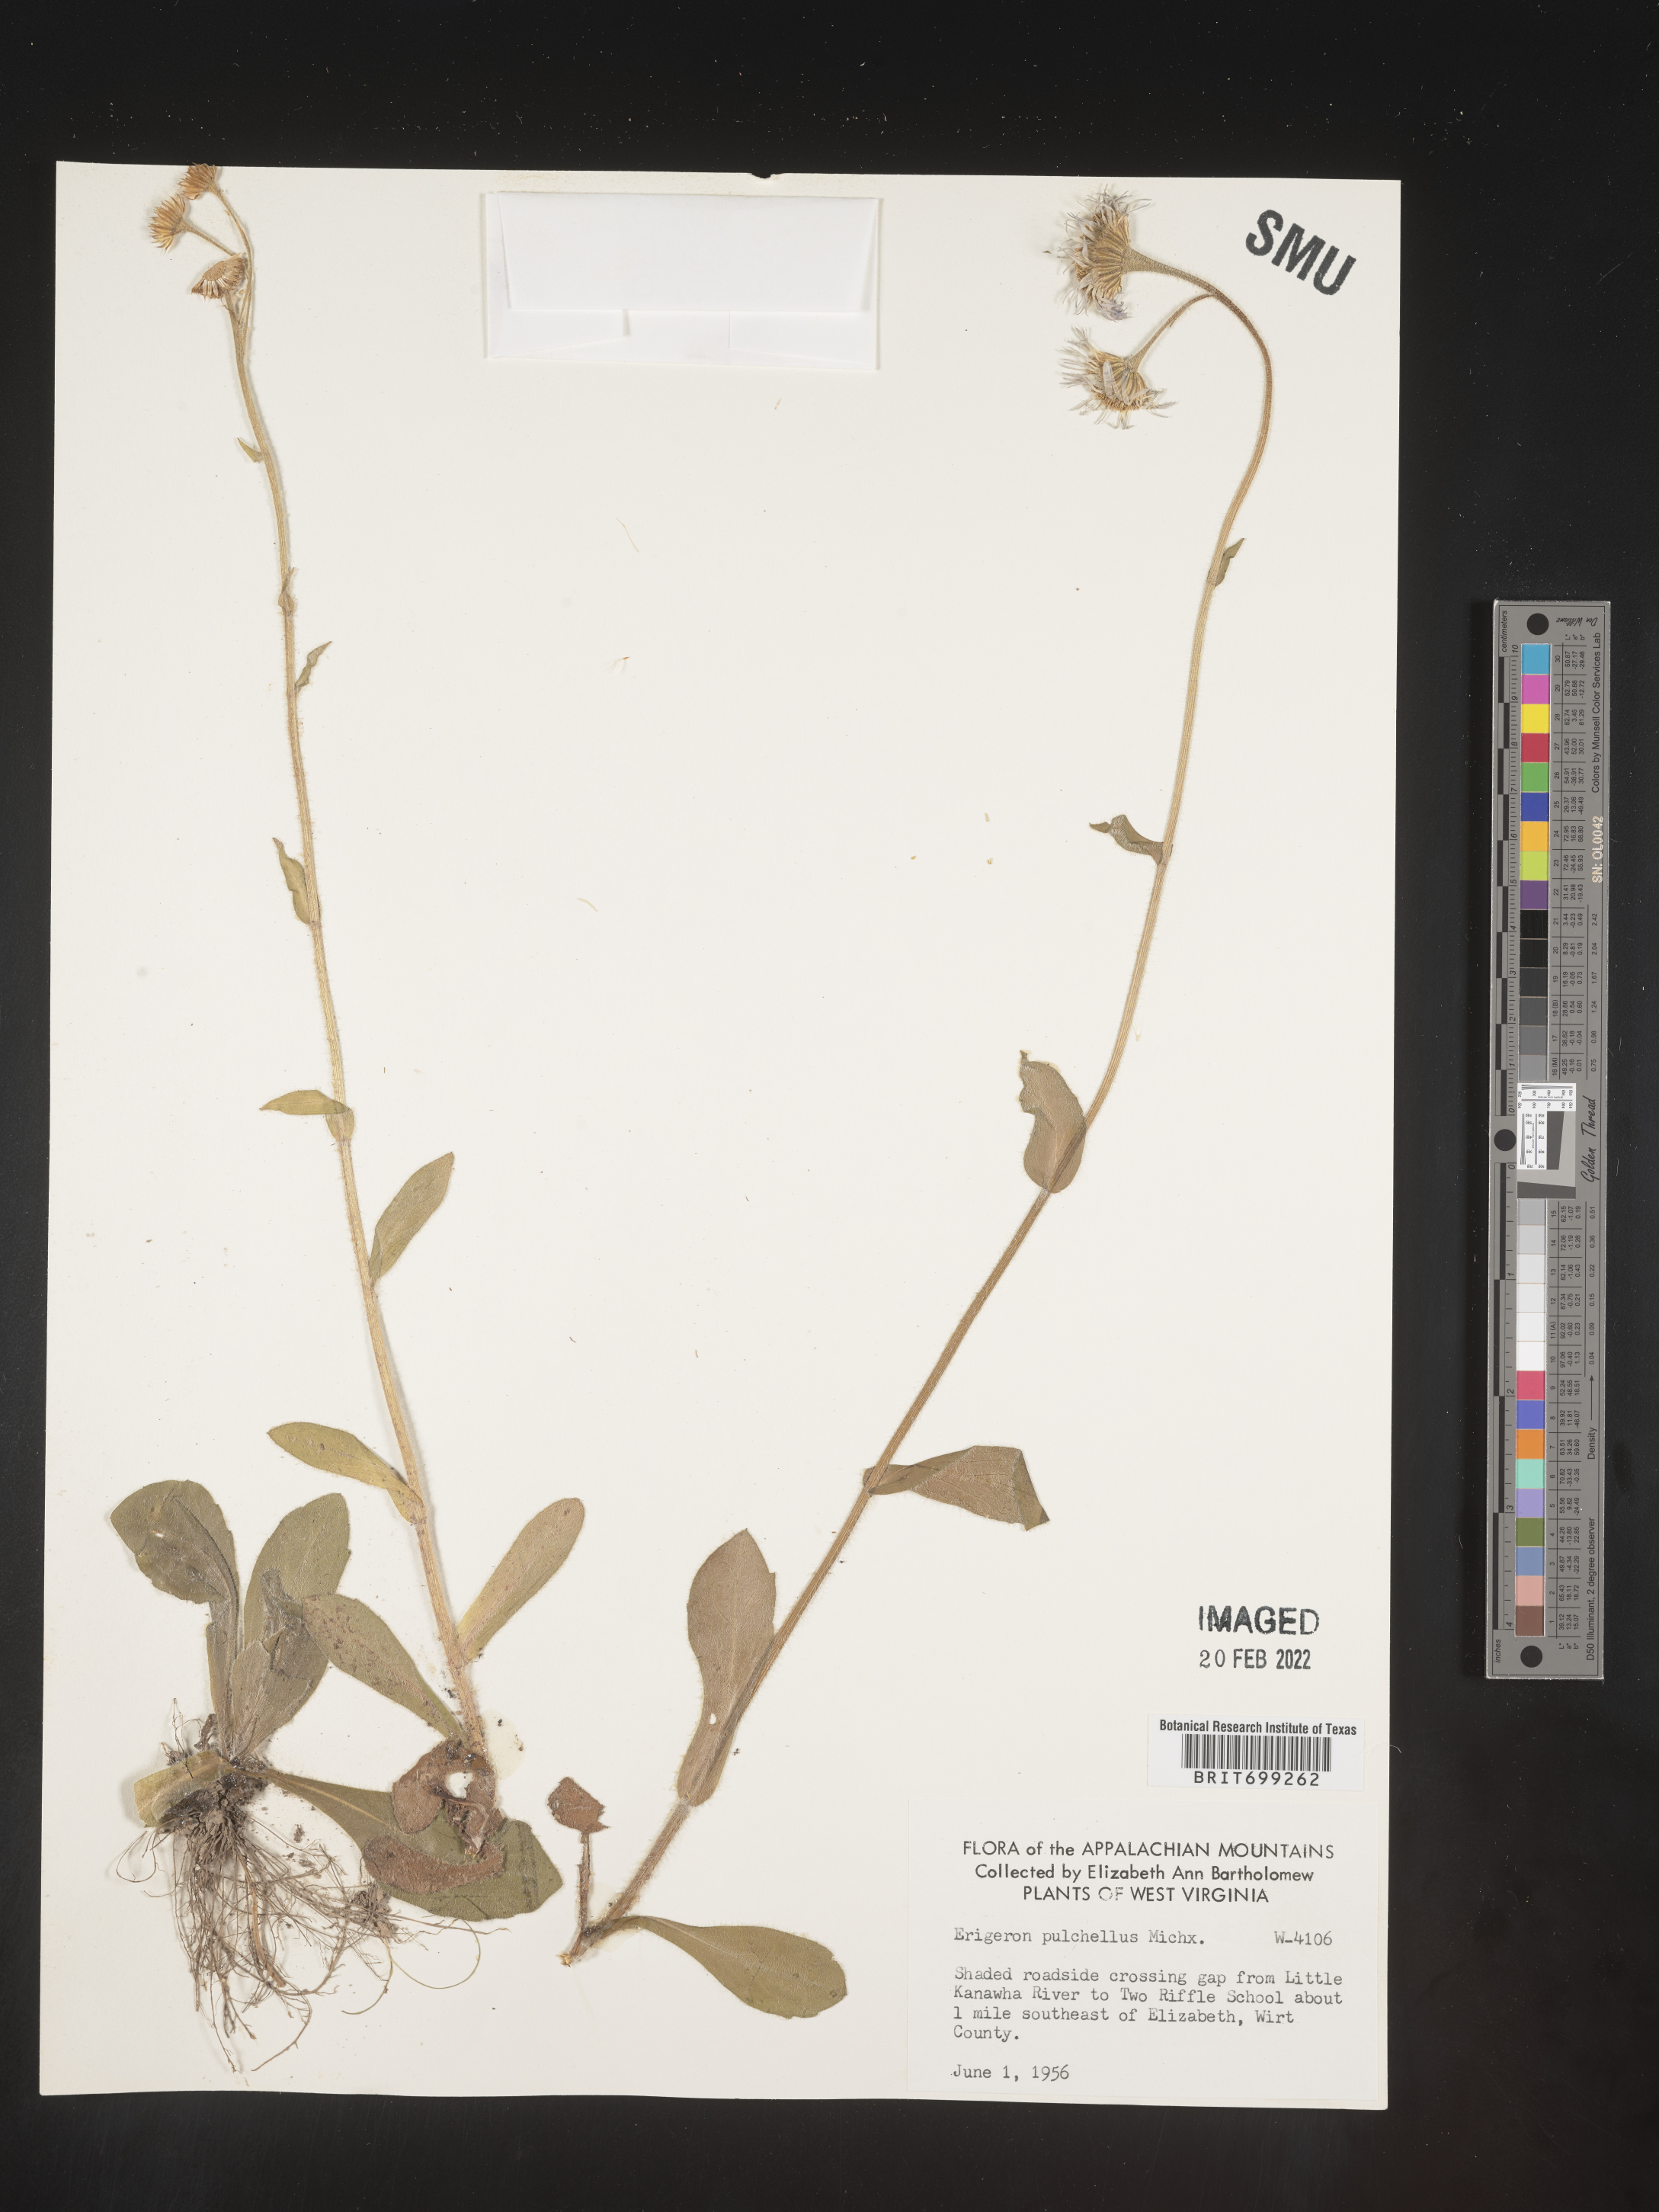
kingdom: Plantae
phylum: Tracheophyta
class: Magnoliopsida
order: Asterales
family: Asteraceae
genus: Erigeron
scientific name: Erigeron pulchellus
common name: Hairy fleabane
